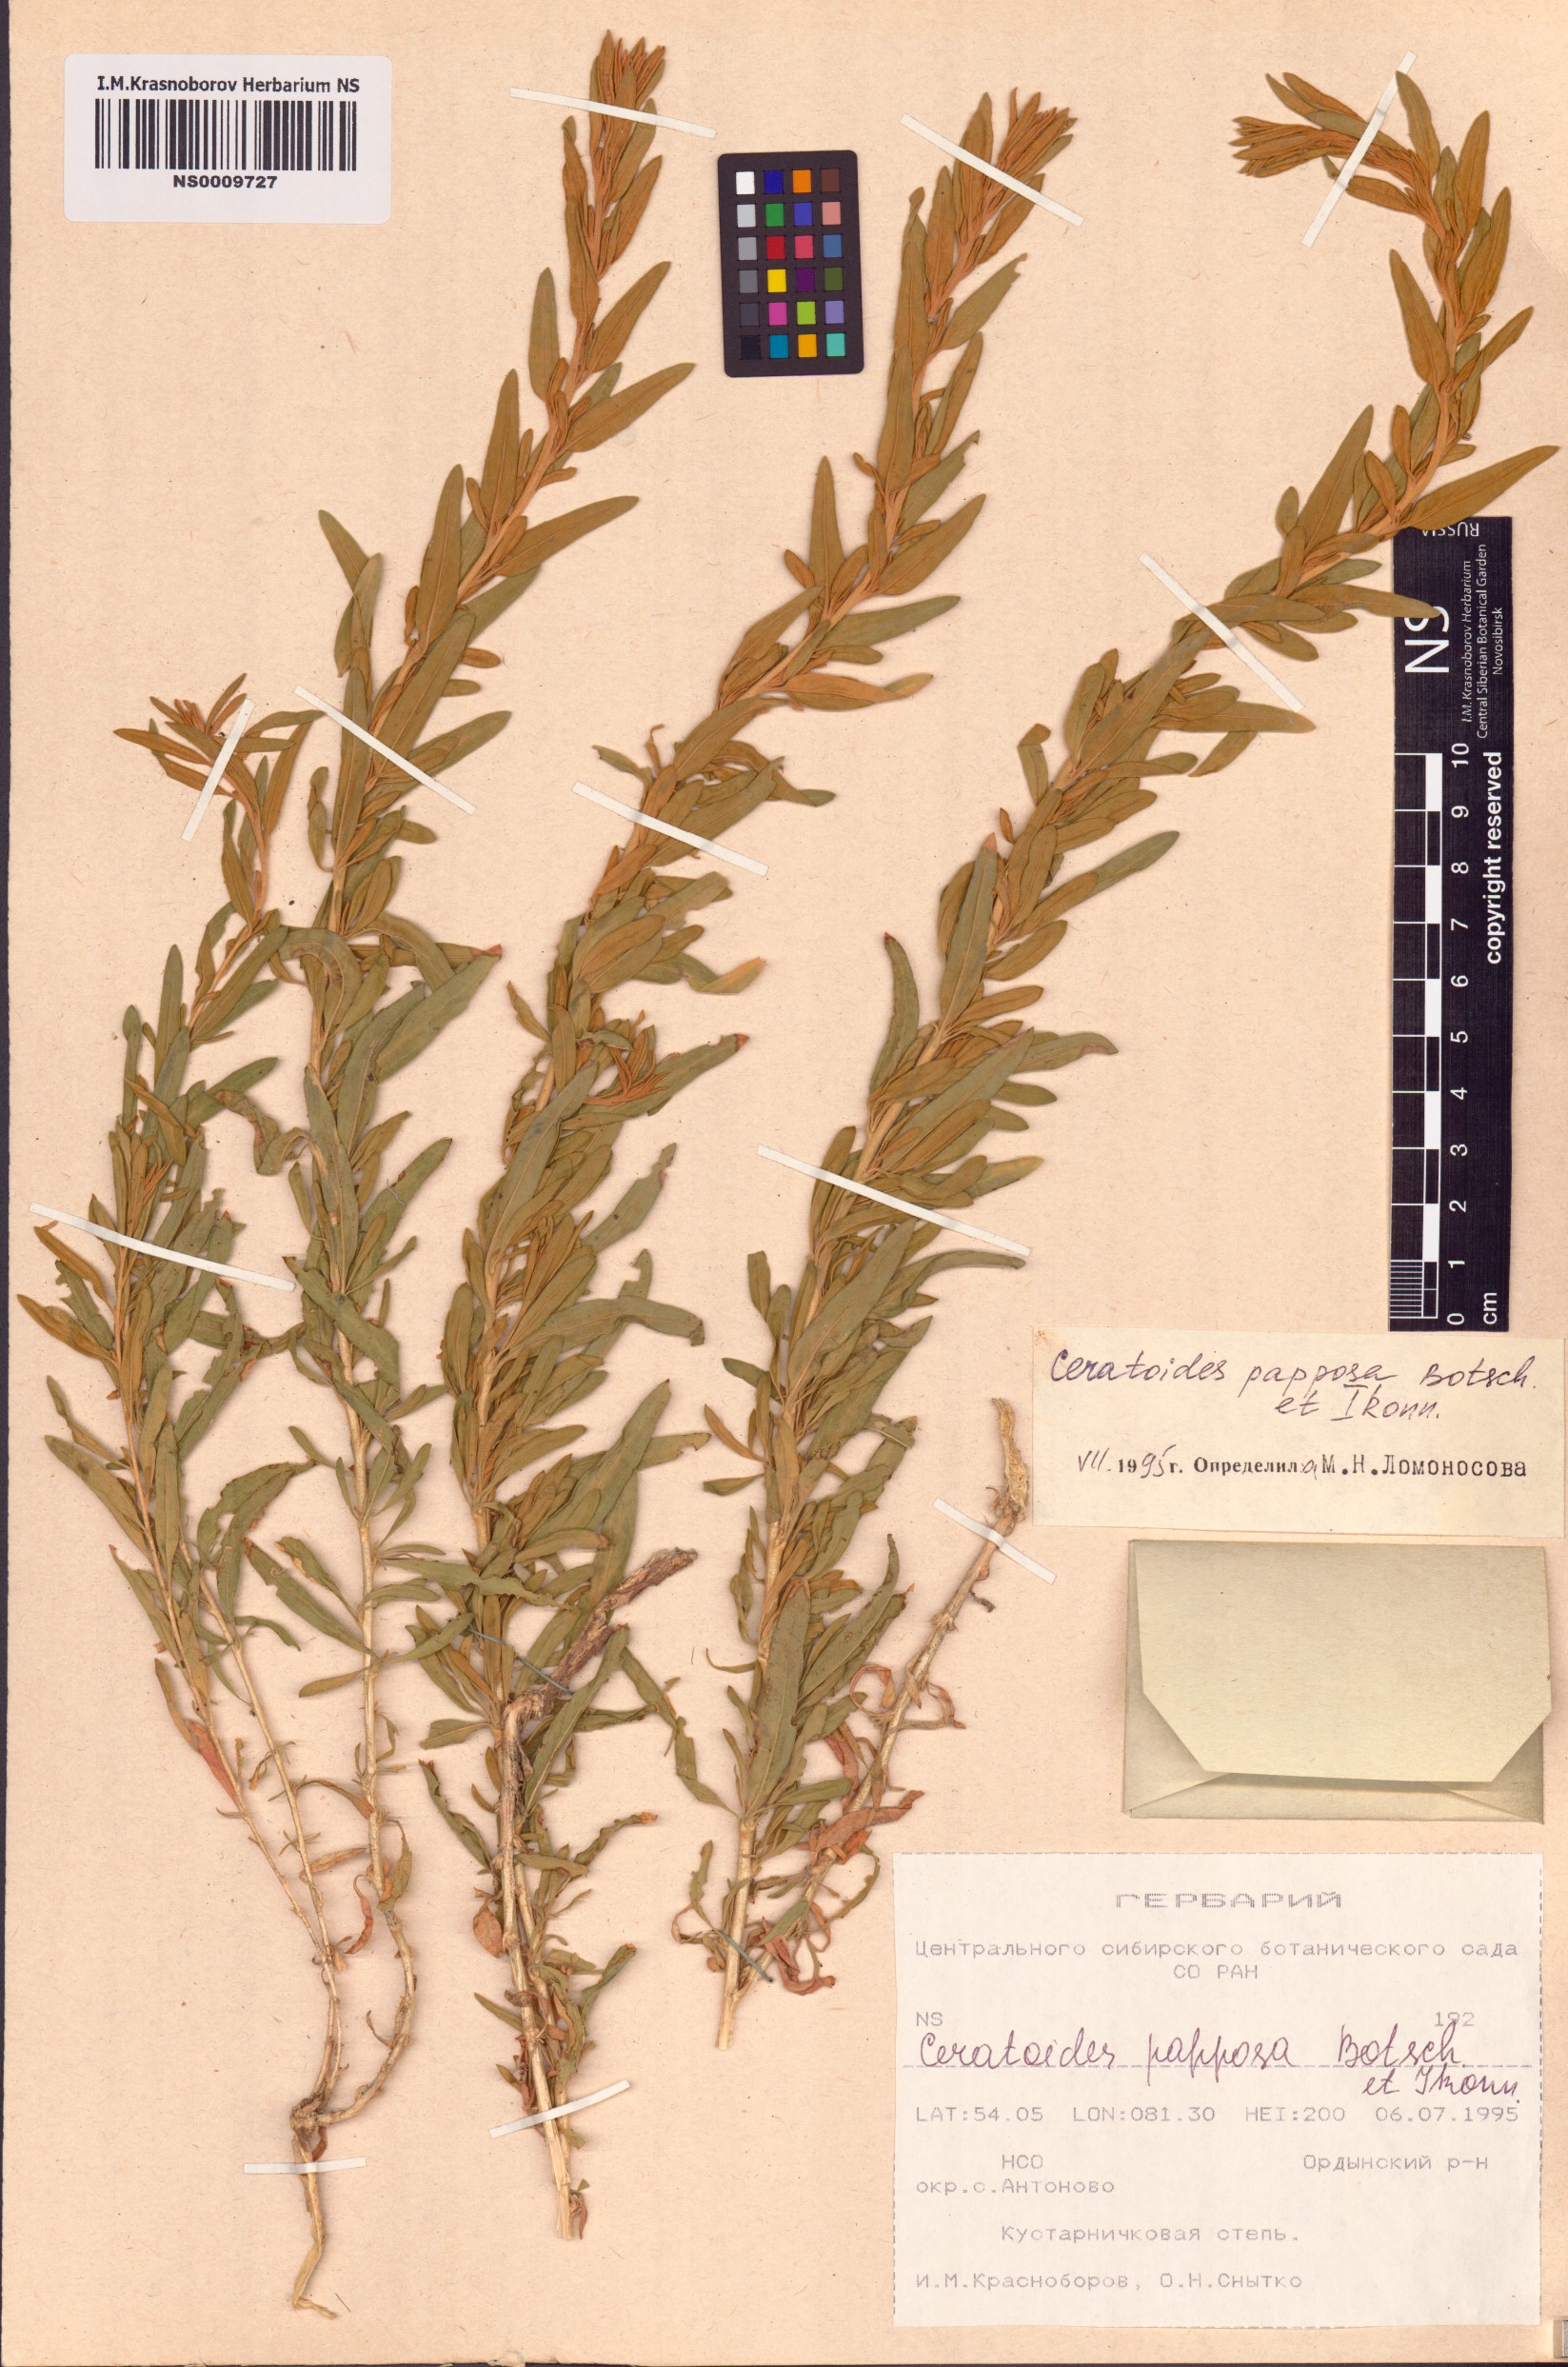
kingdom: Plantae
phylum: Tracheophyta
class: Magnoliopsida
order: Caryophyllales
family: Amaranthaceae
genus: Krascheninnikovia
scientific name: Krascheninnikovia ceratoides
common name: Pamirian winterfat
